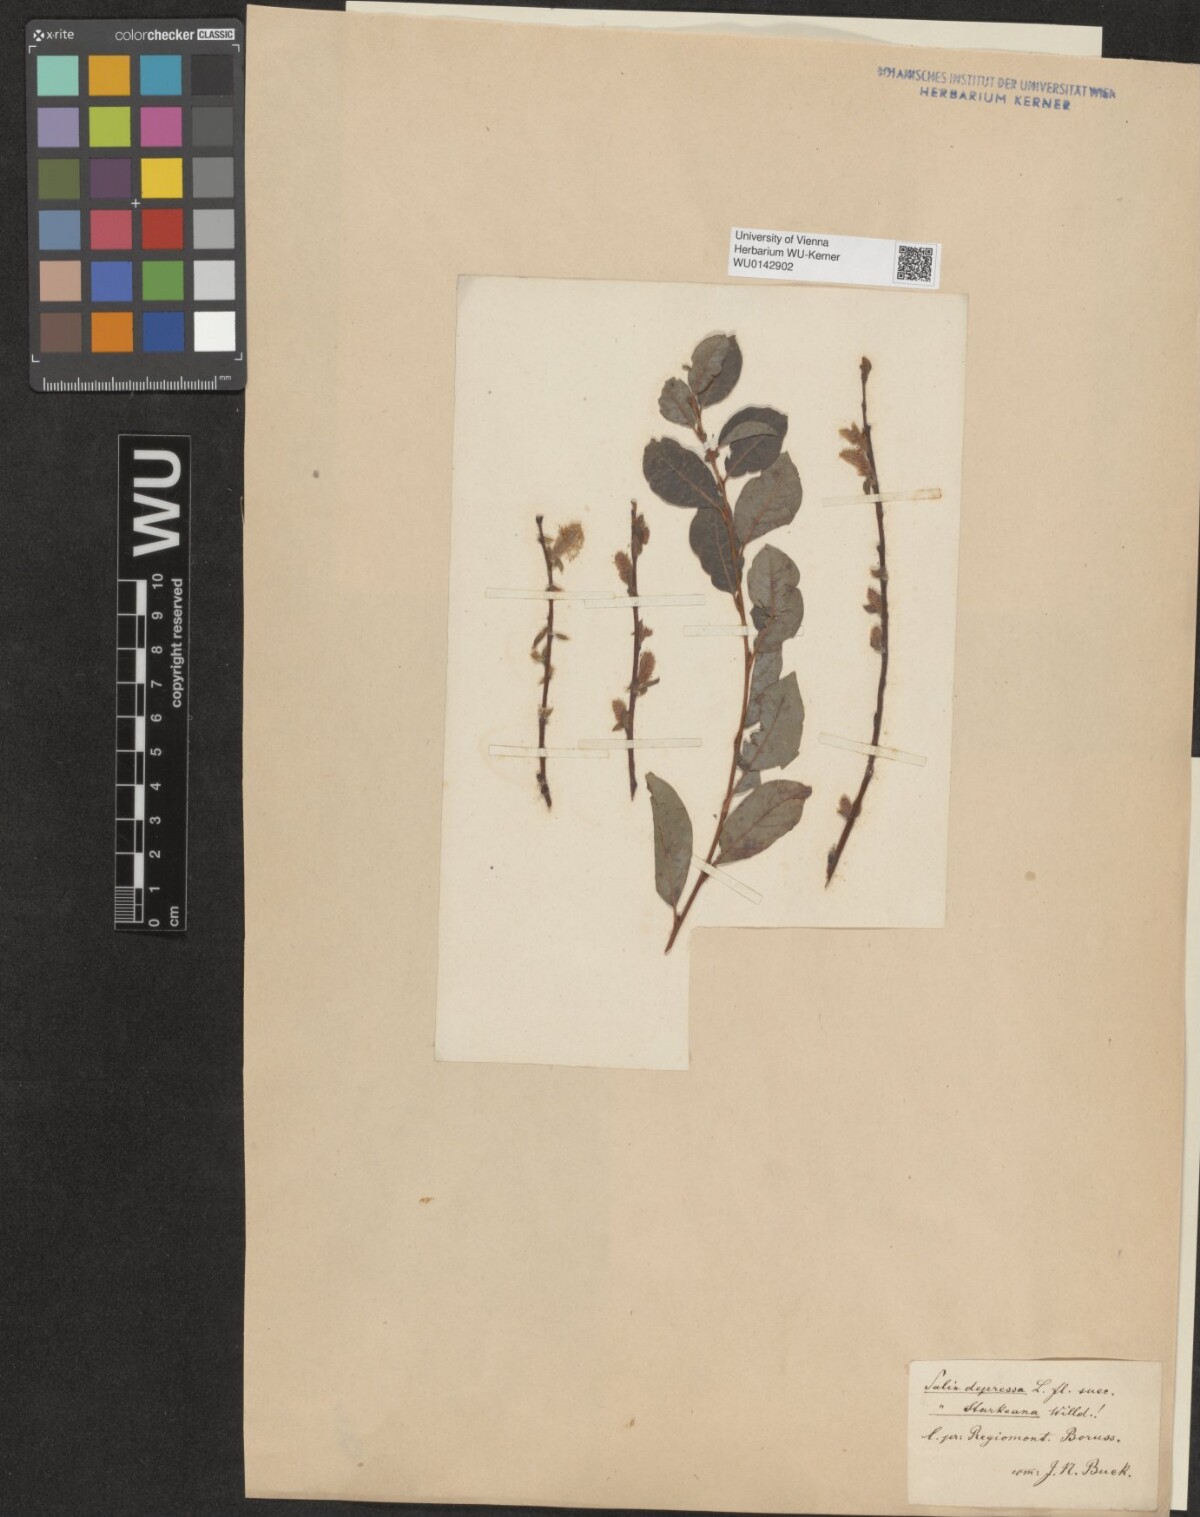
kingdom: Plantae
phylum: Tracheophyta
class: Magnoliopsida
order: Malpighiales
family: Salicaceae
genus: Salix
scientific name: Salix starkeana
